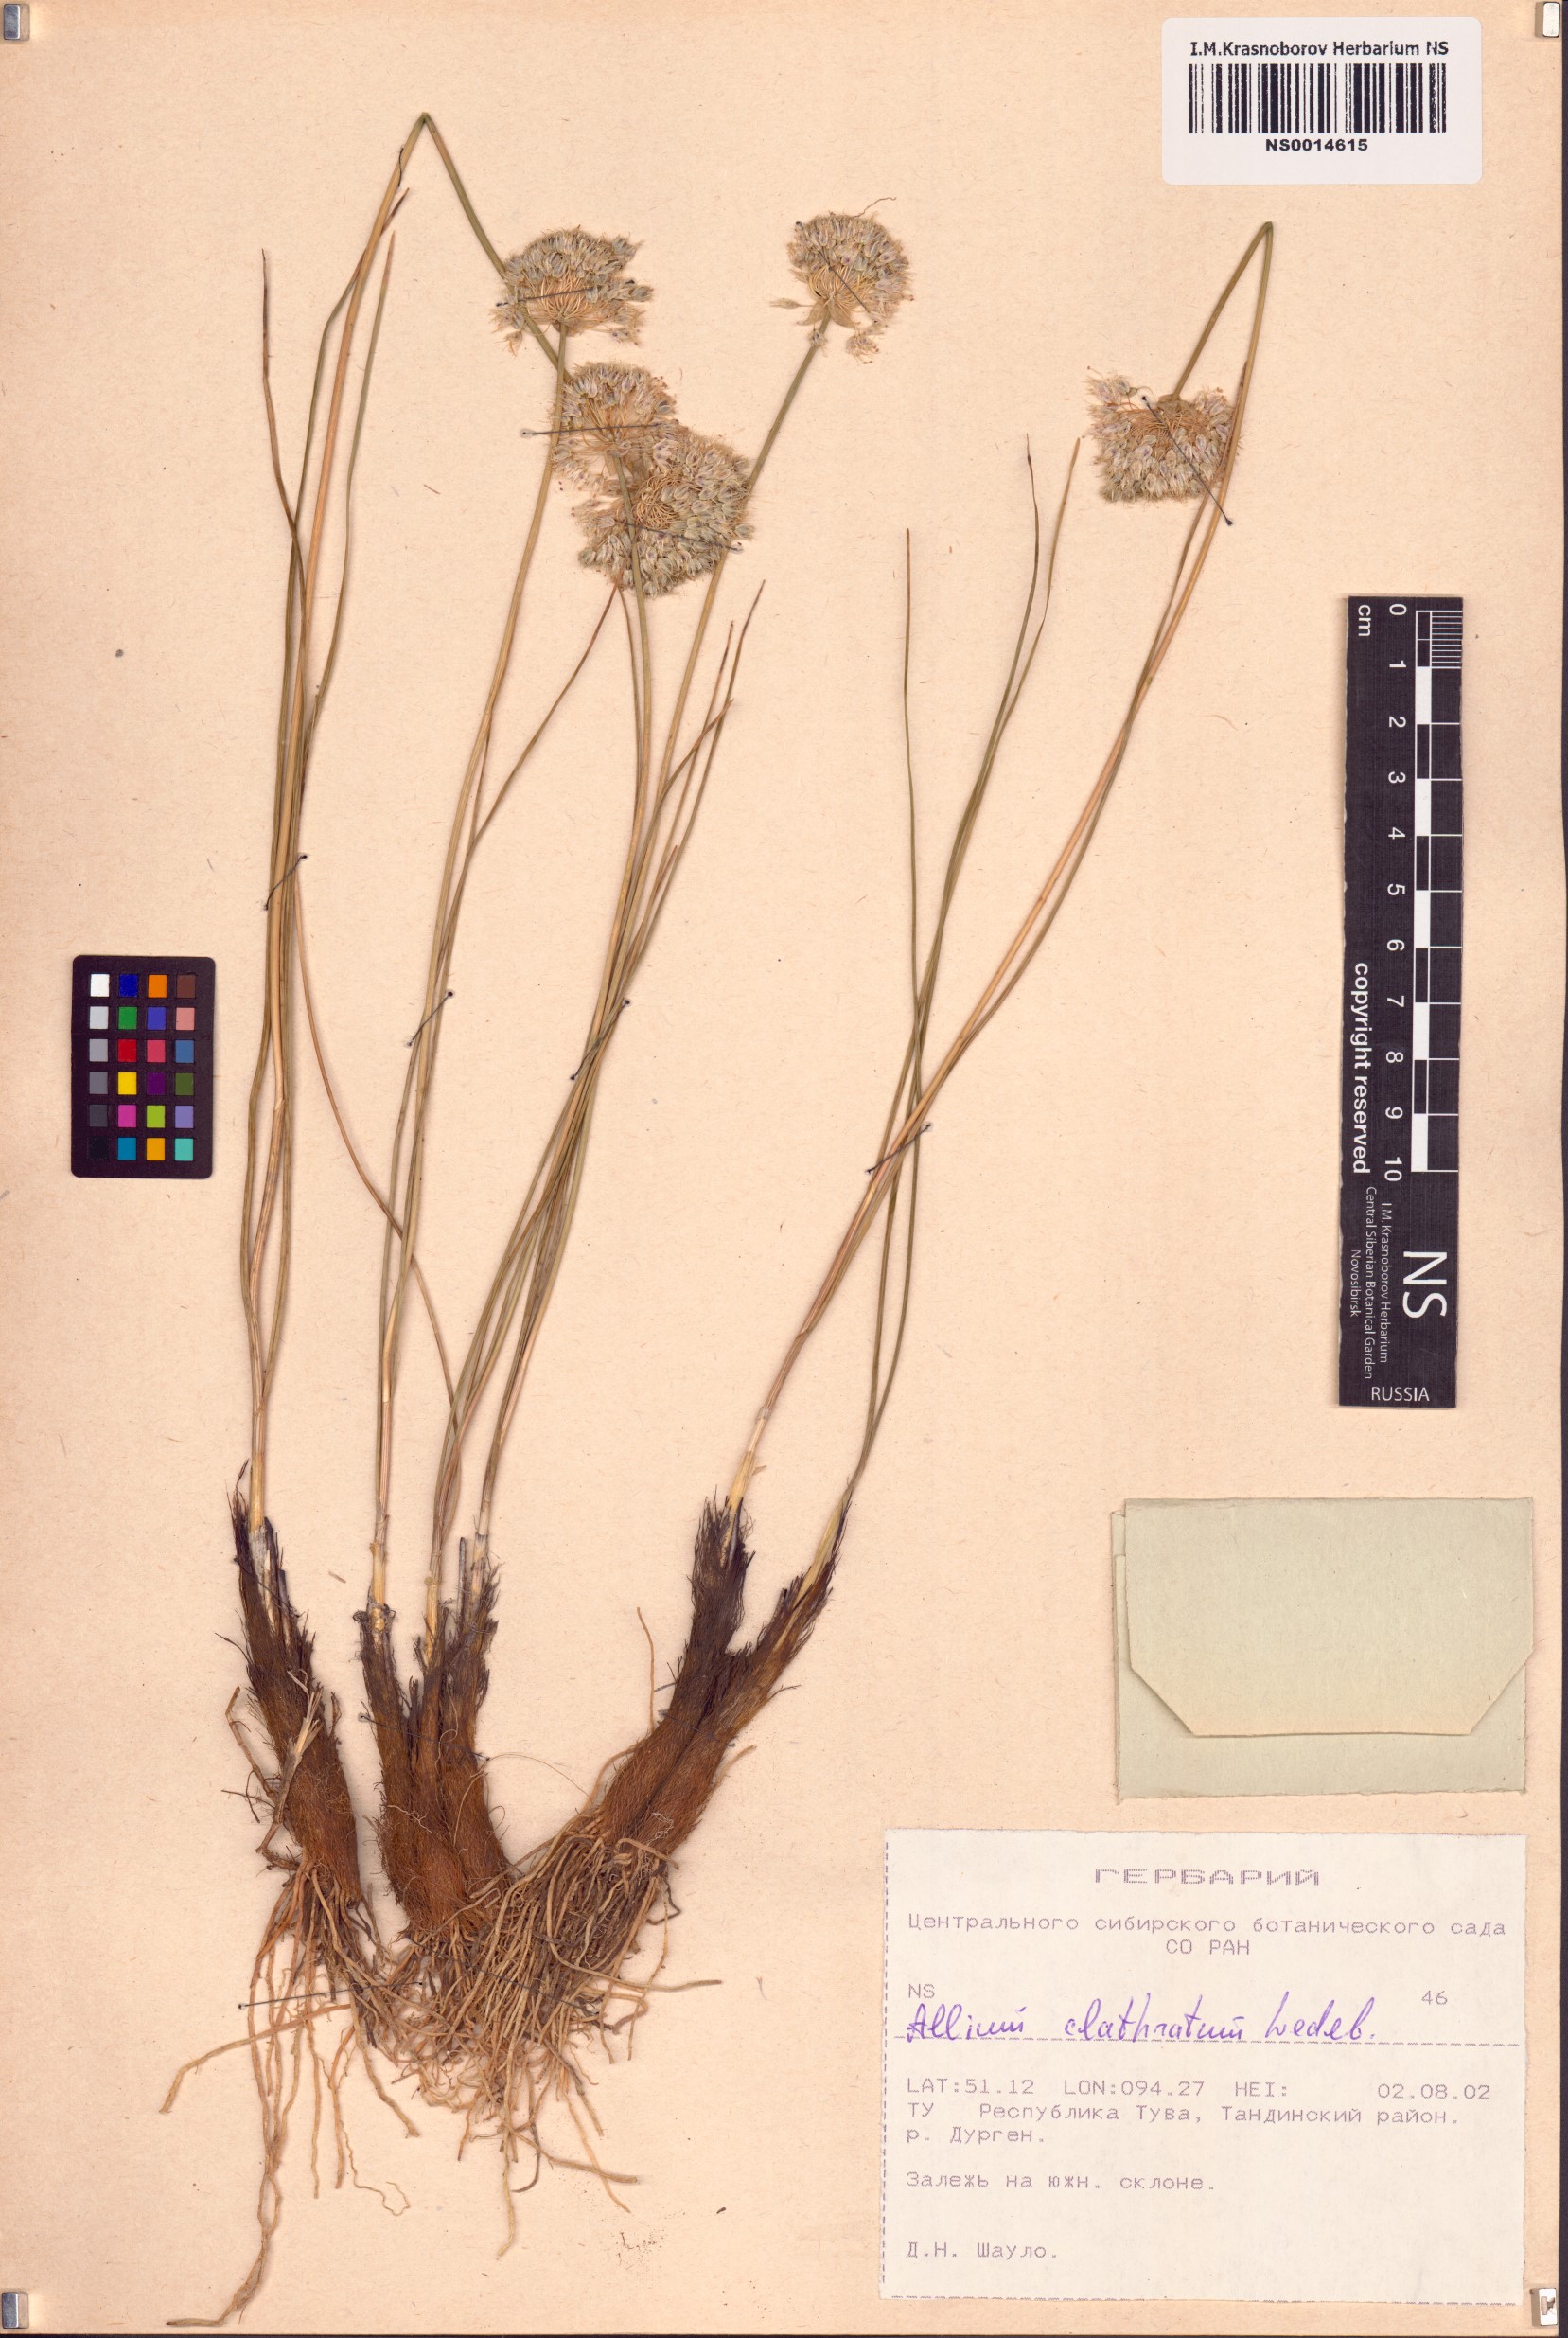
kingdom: Plantae
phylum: Tracheophyta
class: Liliopsida
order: Asparagales
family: Amaryllidaceae
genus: Allium
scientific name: Allium clathratum
